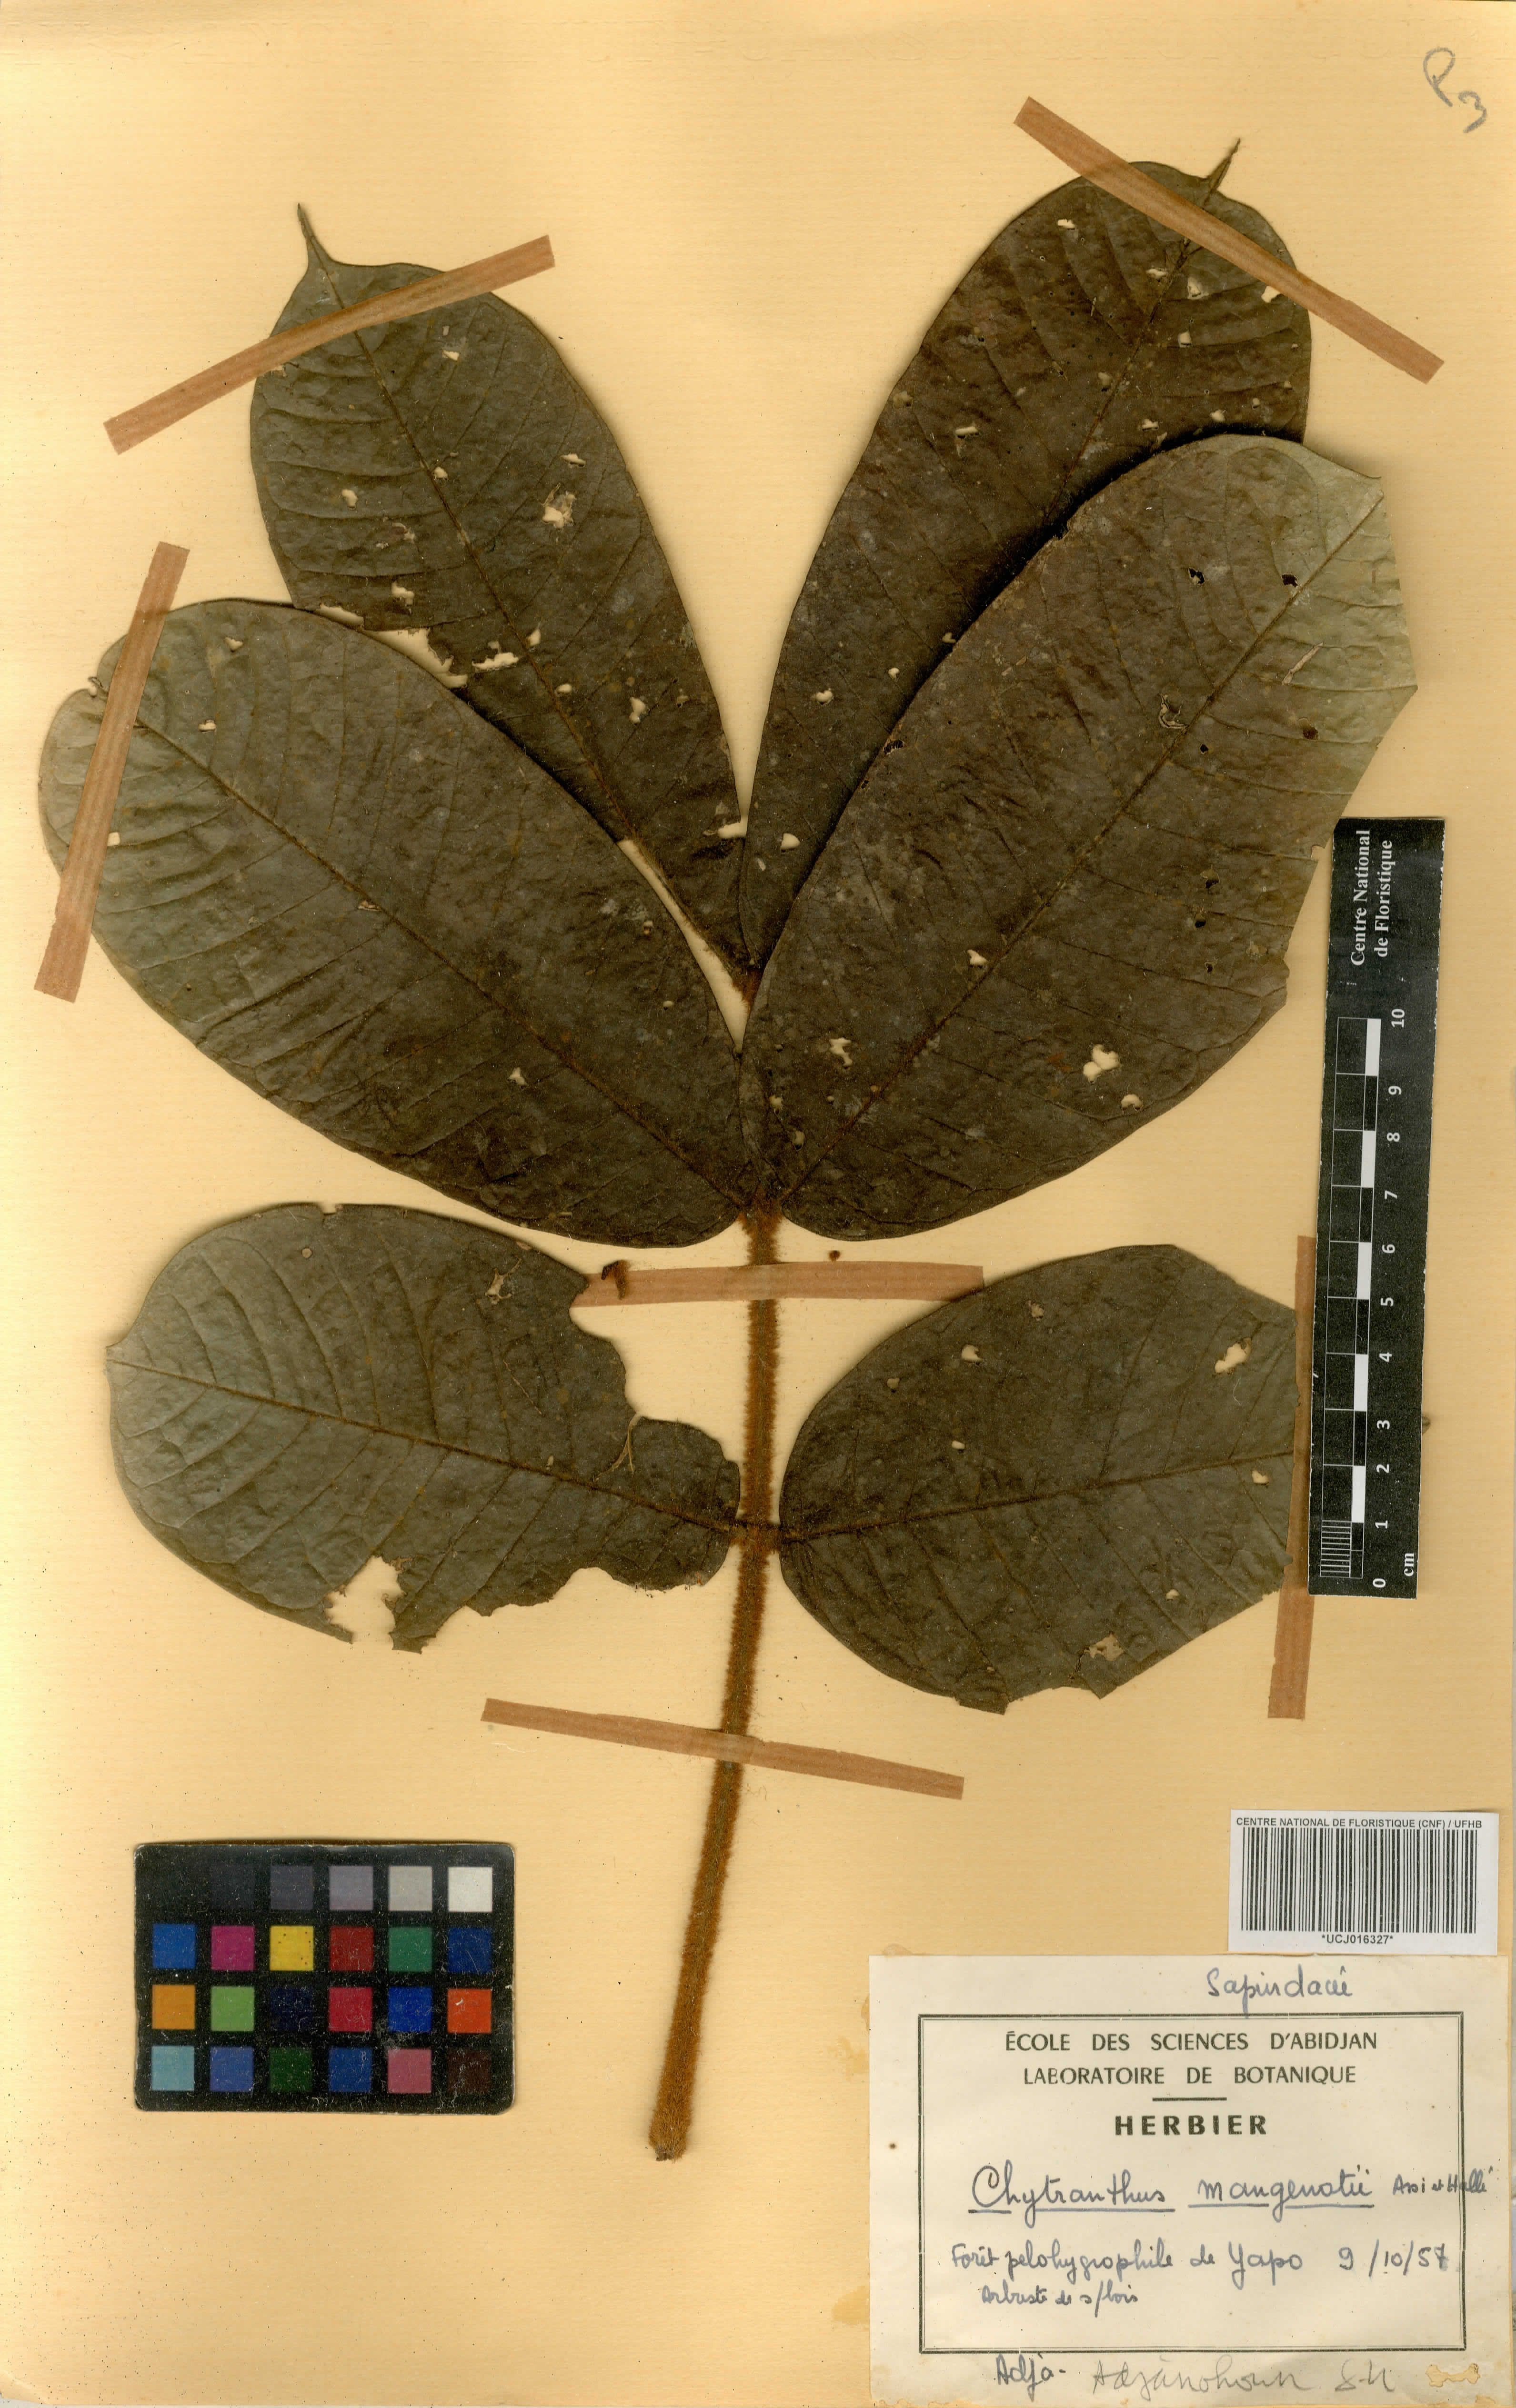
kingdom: Plantae
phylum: Tracheophyta
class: Magnoliopsida
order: Sapindales
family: Sapindaceae
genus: Chytranthus
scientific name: Chytranthus cauliflorus
